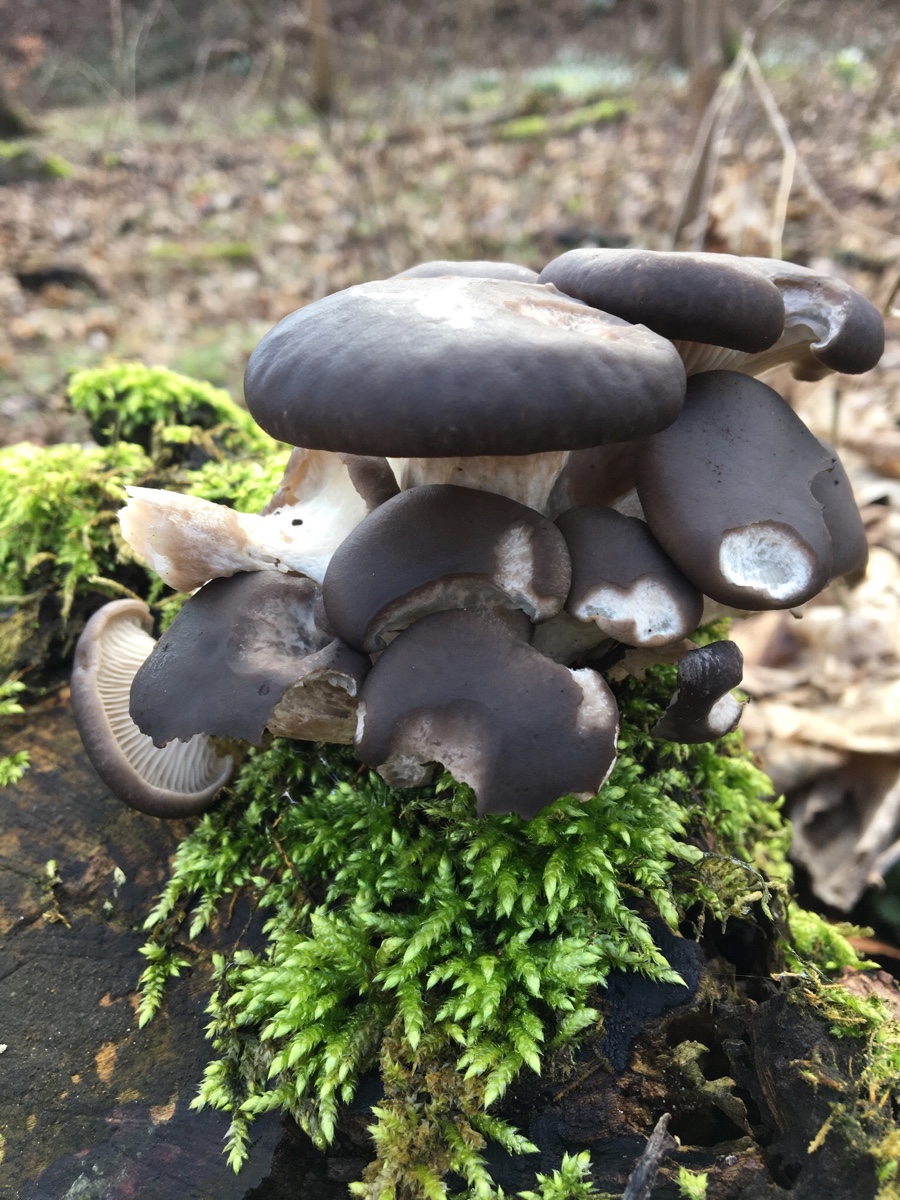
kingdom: Fungi
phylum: Basidiomycota
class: Agaricomycetes
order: Agaricales
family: Pleurotaceae
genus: Pleurotus
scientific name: Pleurotus ostreatus
